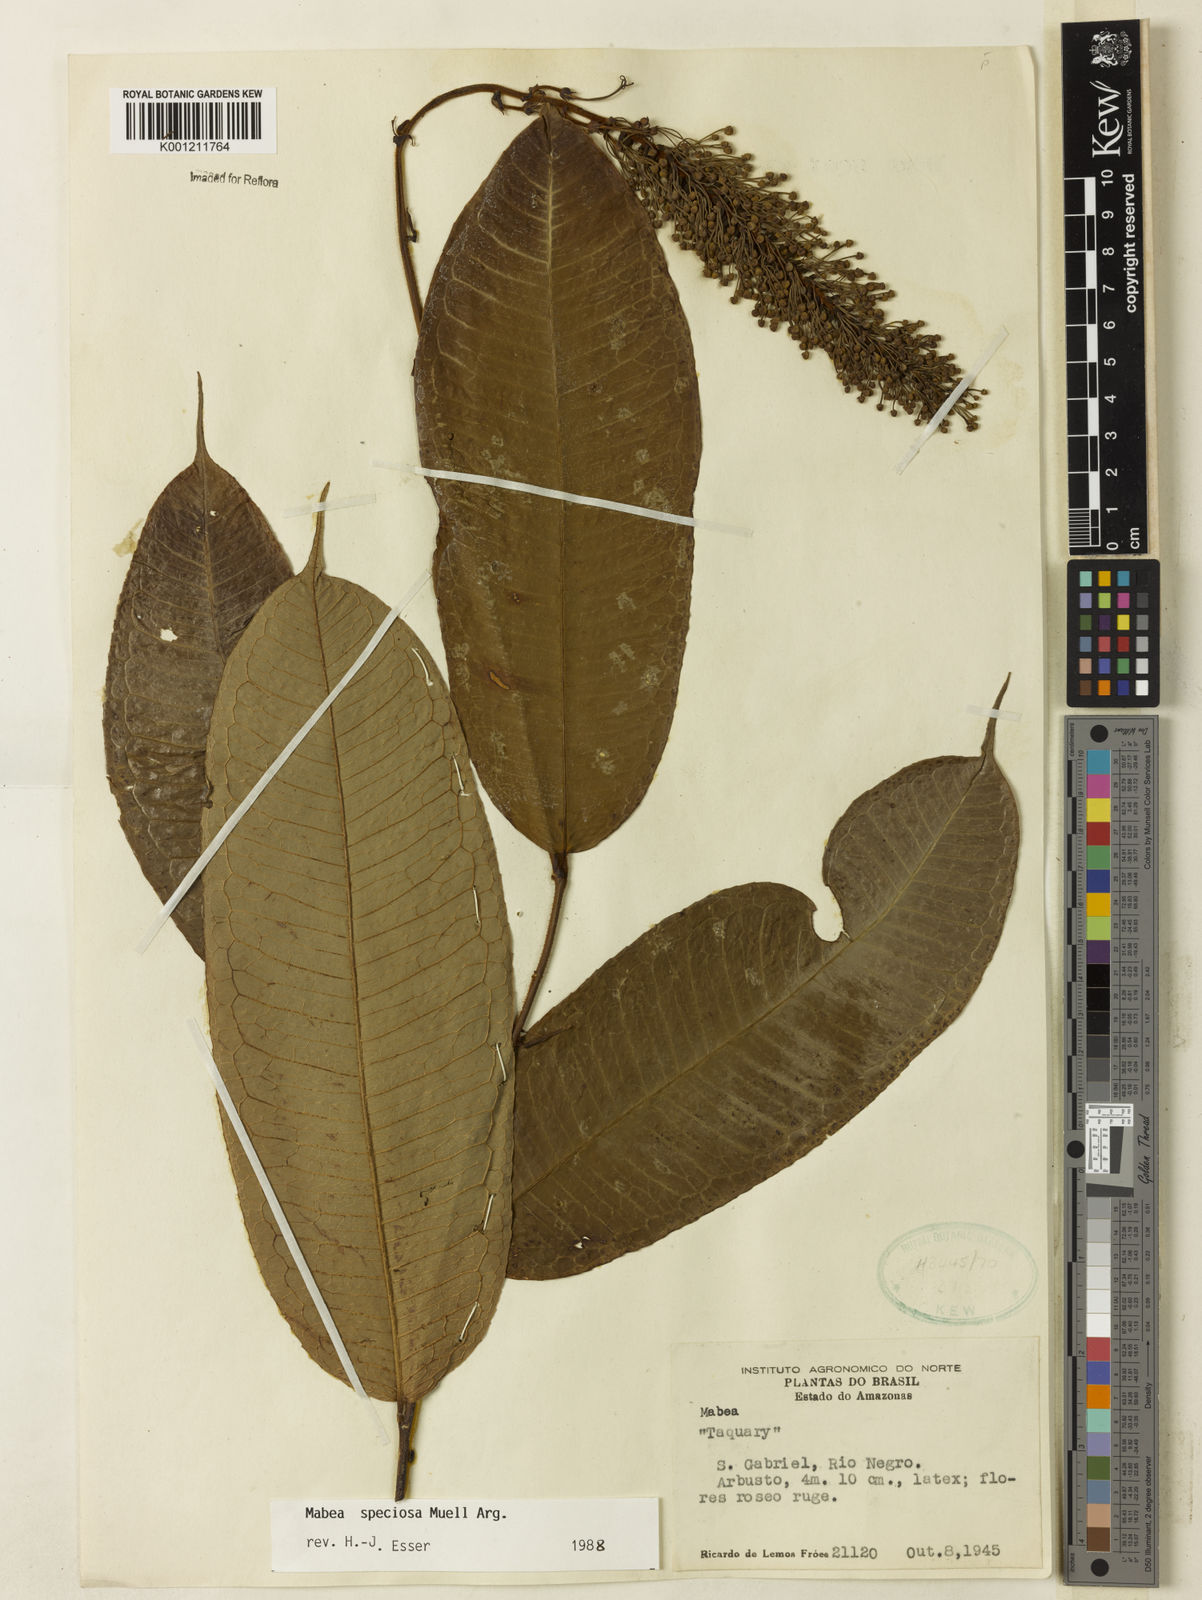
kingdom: Plantae
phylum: Tracheophyta
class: Magnoliopsida
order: Malpighiales
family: Euphorbiaceae
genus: Mabea
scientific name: Mabea
